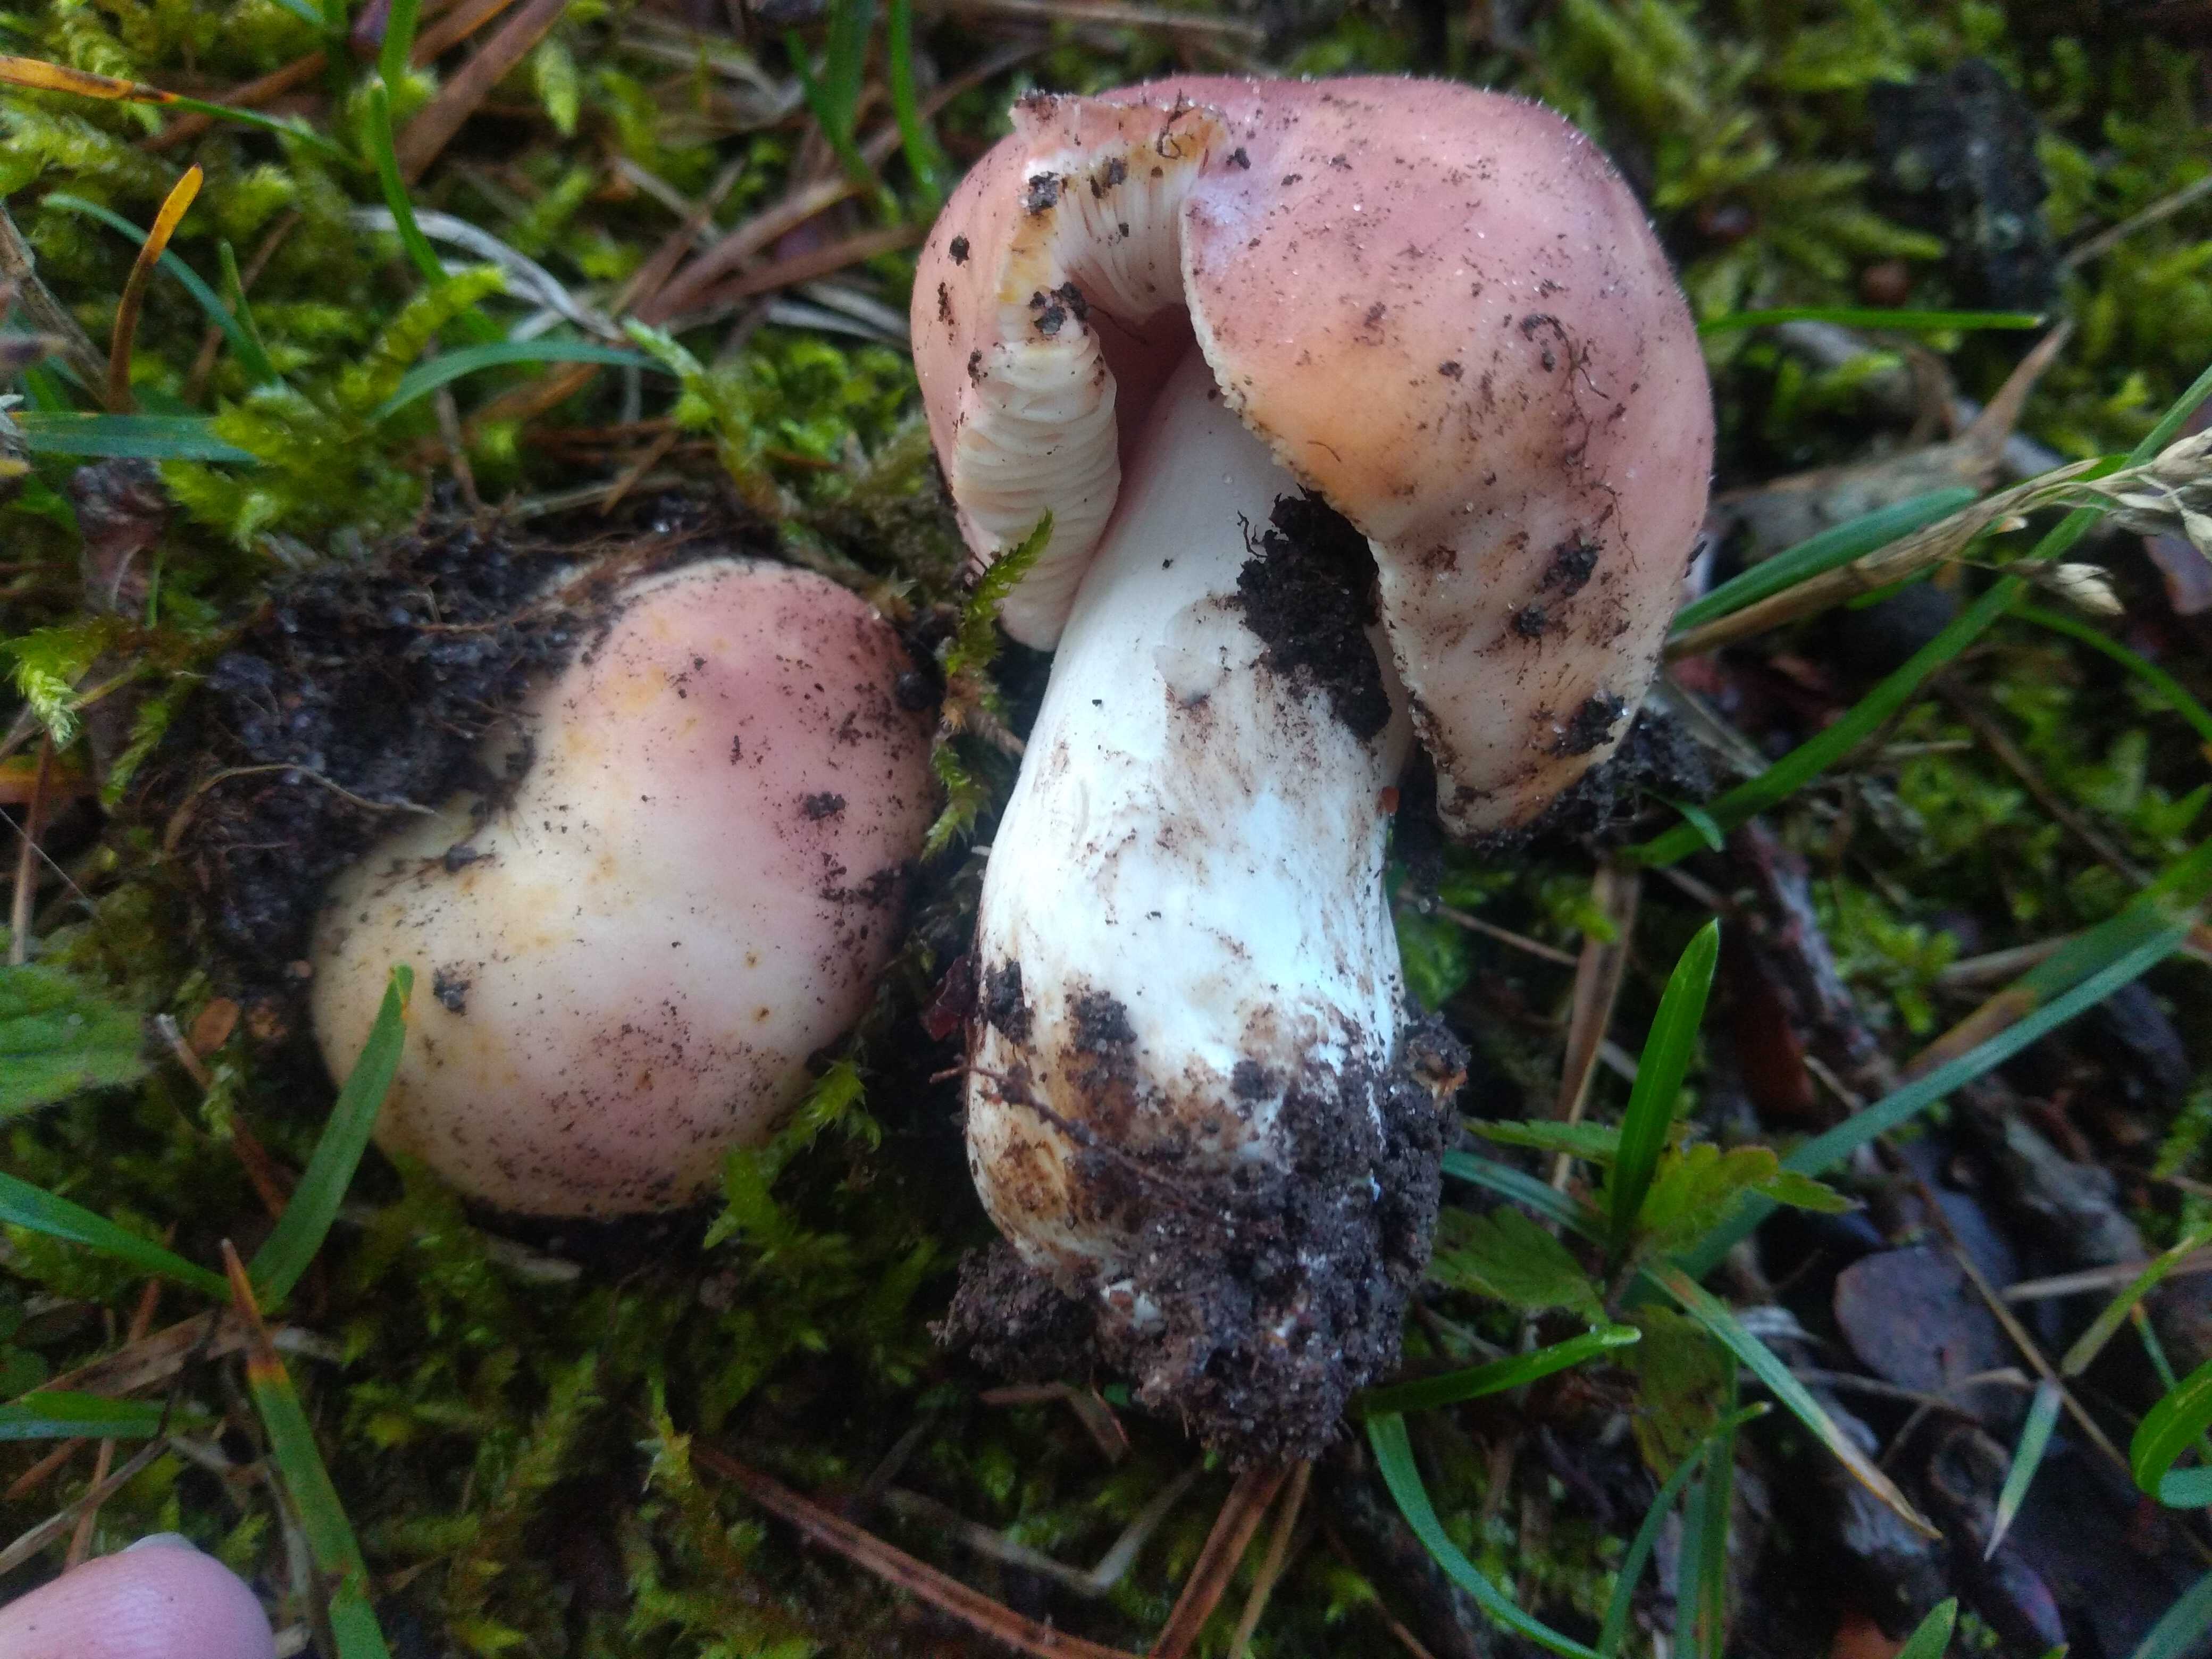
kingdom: Fungi
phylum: Basidiomycota
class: Agaricomycetes
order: Russulales
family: Russulaceae
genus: Russula
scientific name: Russula vesca
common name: spiselig skørhat
